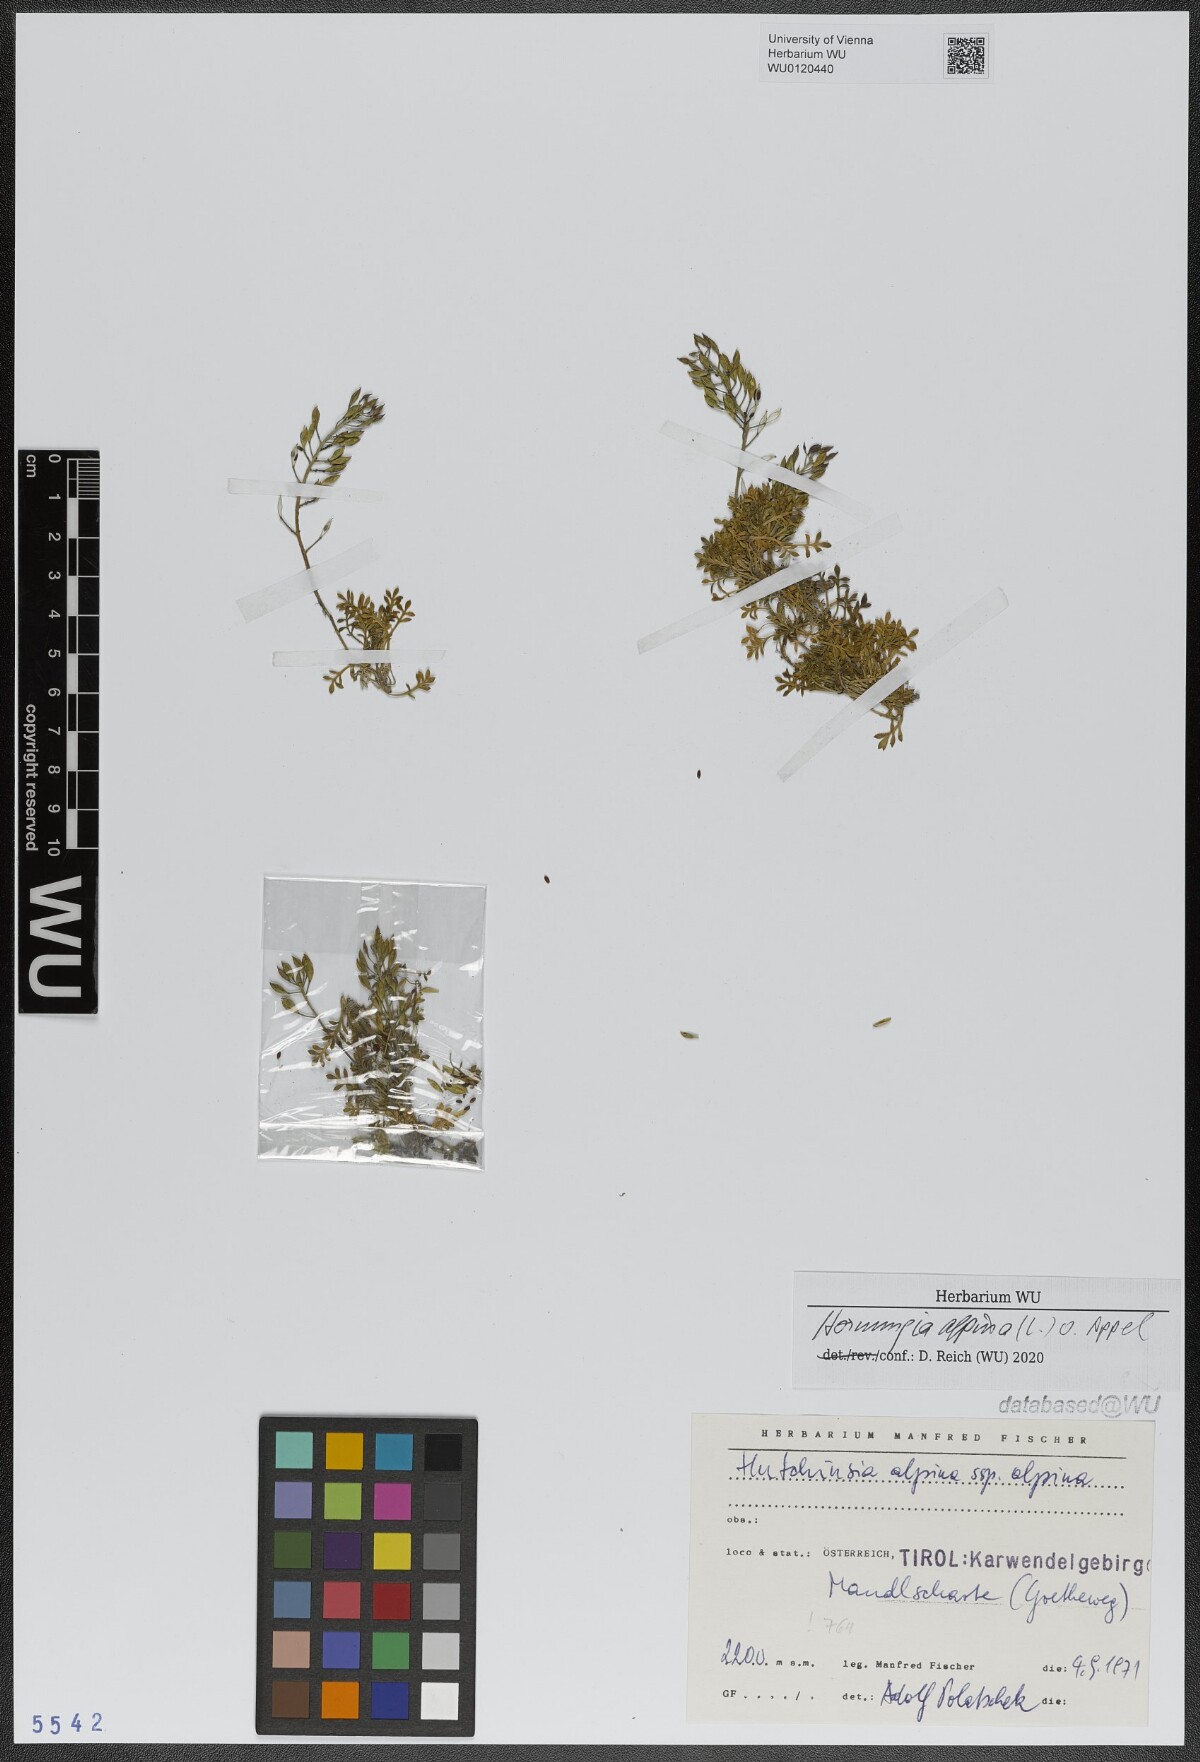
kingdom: Plantae
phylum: Tracheophyta
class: Magnoliopsida
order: Brassicales
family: Brassicaceae
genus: Hornungia
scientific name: Hornungia alpina
